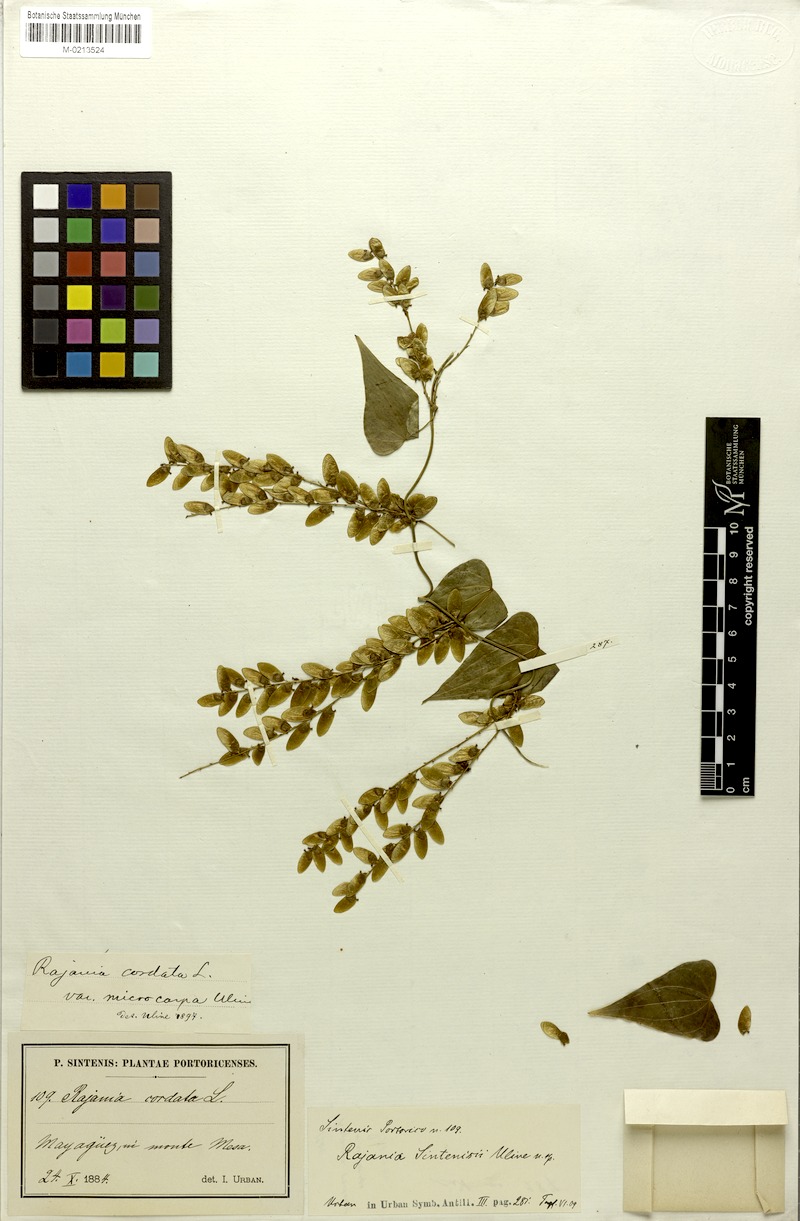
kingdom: Plantae
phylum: Tracheophyta
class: Liliopsida
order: Dioscoreales
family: Dioscoreaceae
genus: Dioscorea
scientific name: Dioscorea cordata
